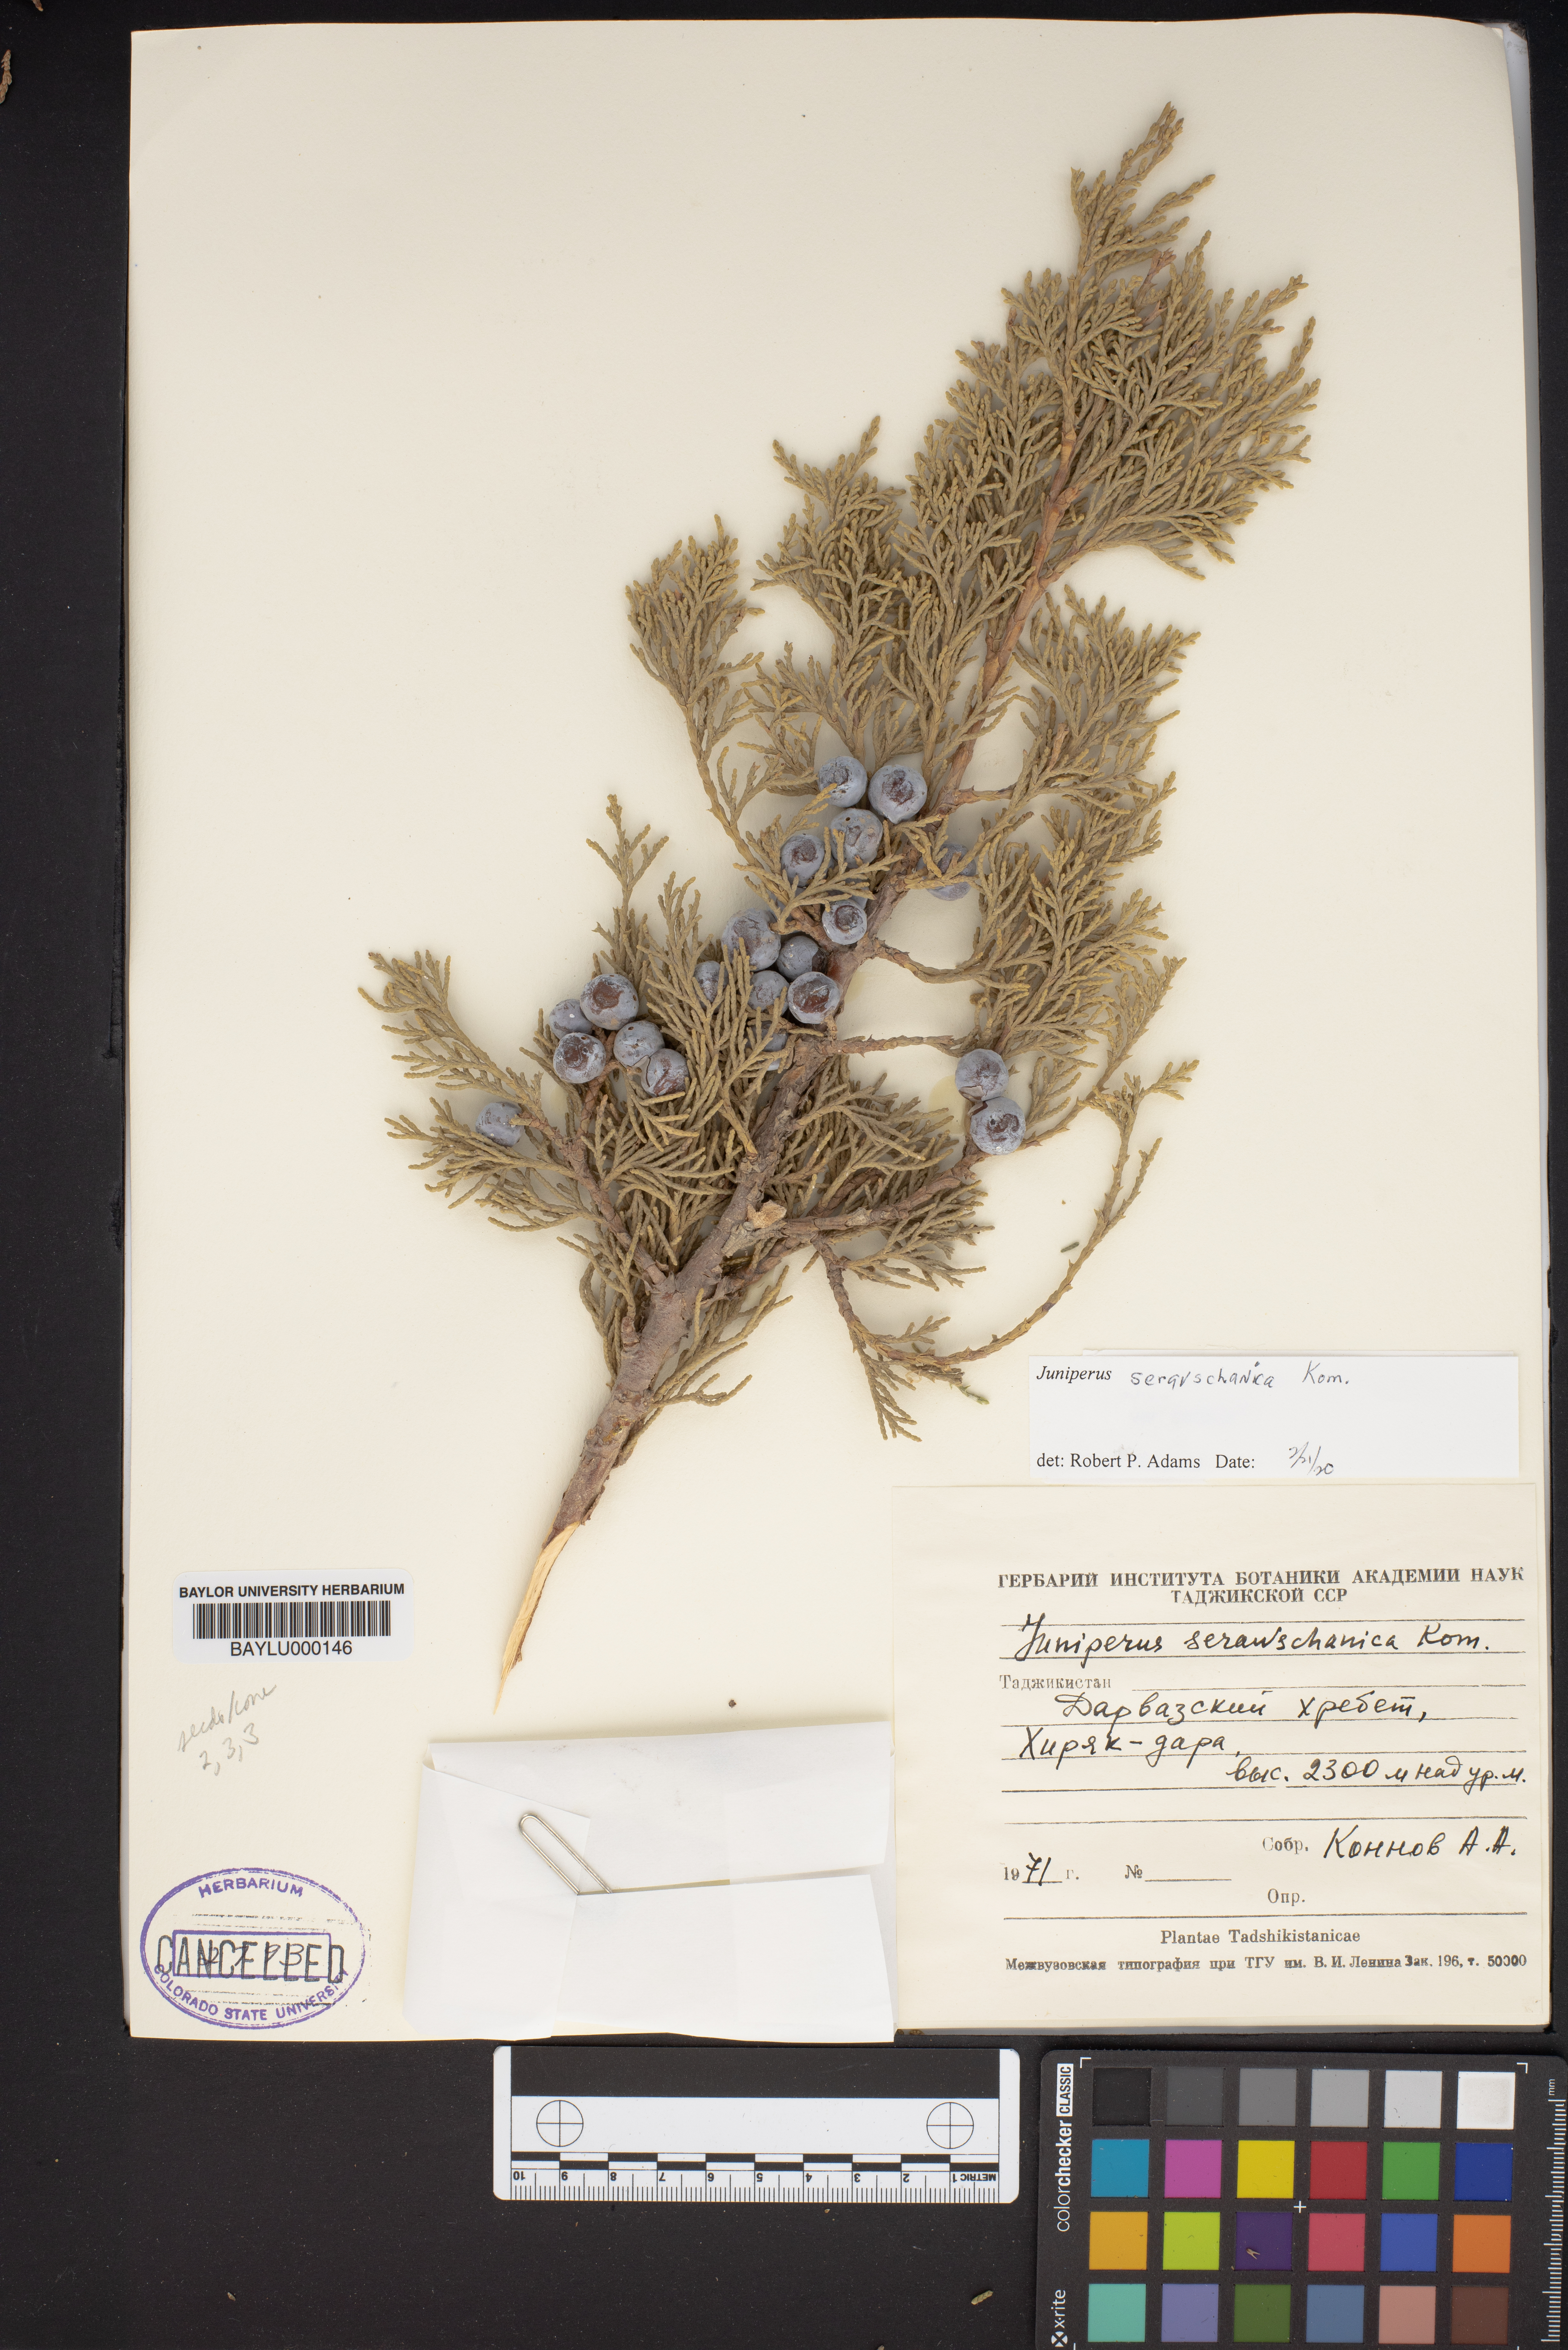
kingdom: Plantae
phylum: Tracheophyta
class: Pinopsida
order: Pinales
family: Cupressaceae
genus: Juniperus
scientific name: Juniperus excelsa
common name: Crimean juniper
